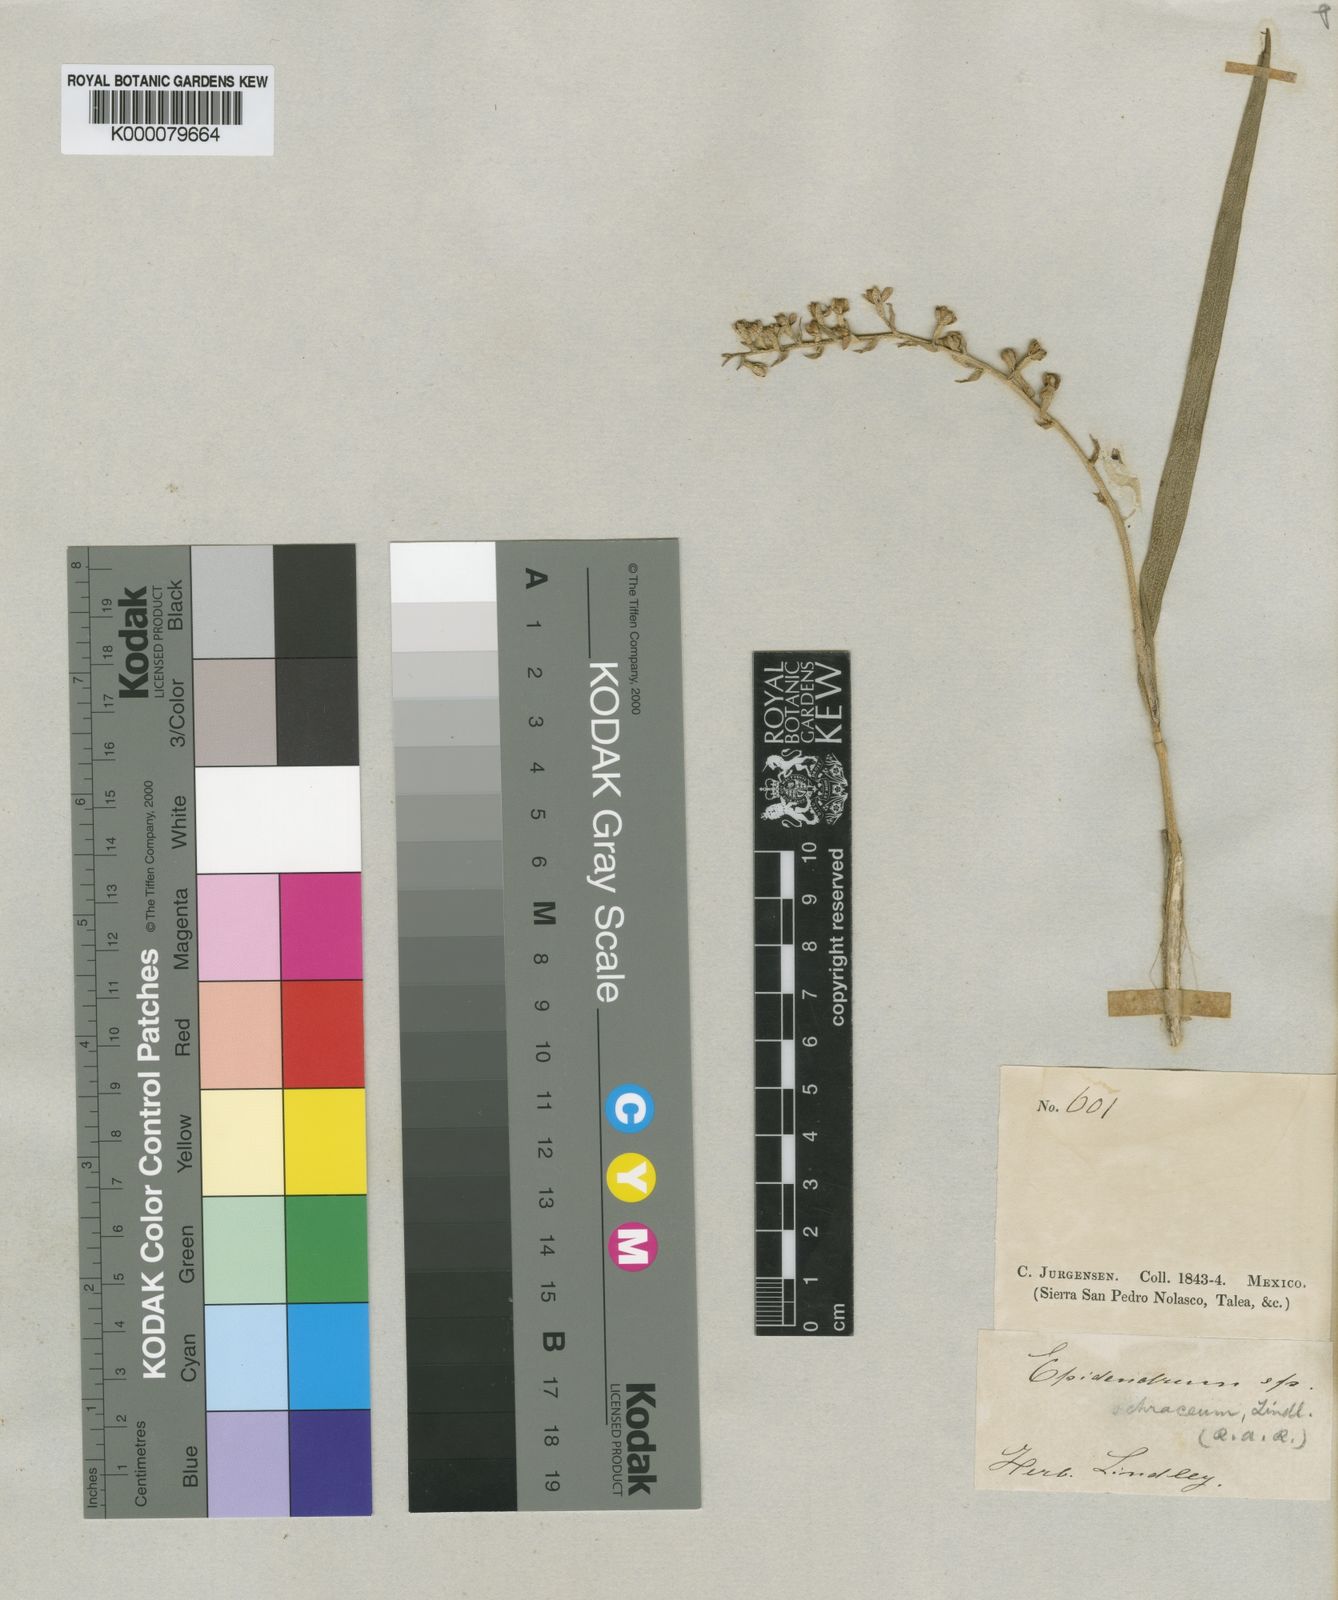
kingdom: Plantae
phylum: Tracheophyta
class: Liliopsida
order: Asparagales
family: Orchidaceae
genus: Prosthechea
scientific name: Prosthechea ochracea
